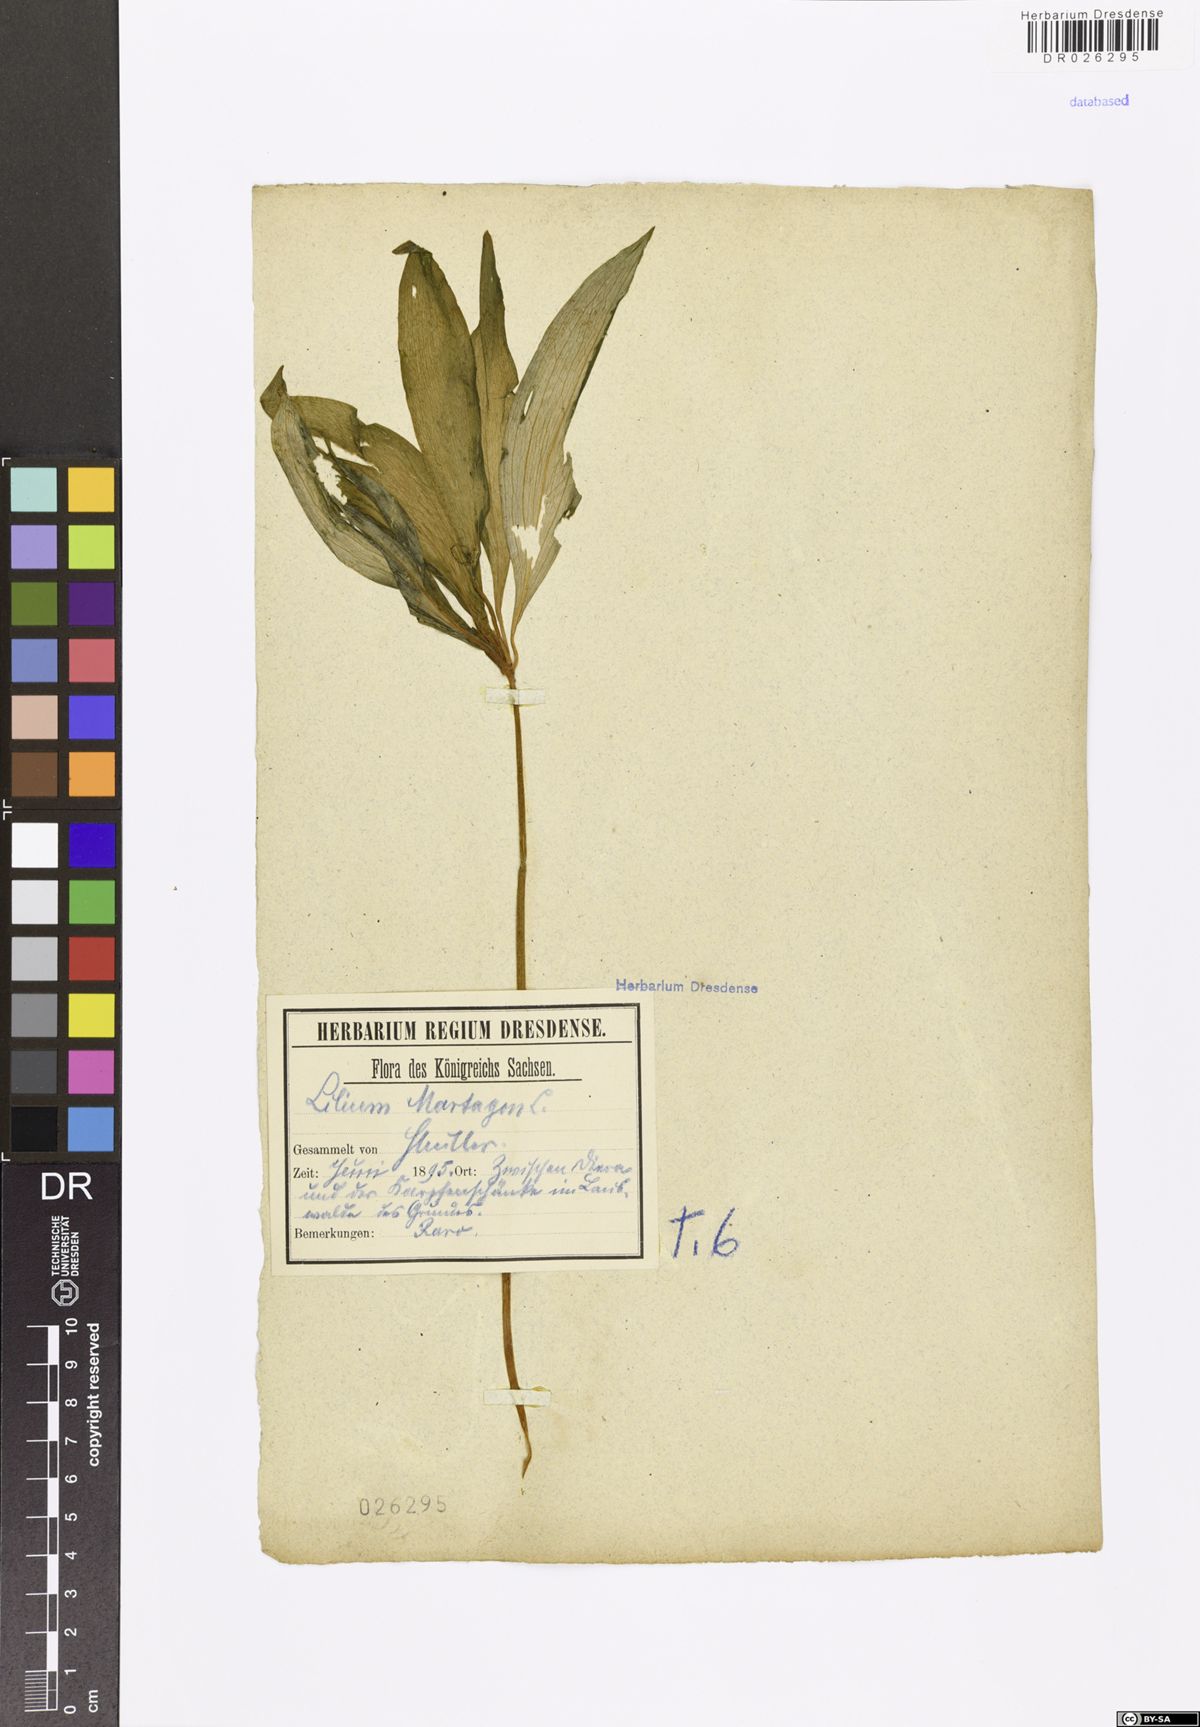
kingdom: Plantae
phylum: Tracheophyta
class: Liliopsida
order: Liliales
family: Liliaceae
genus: Lilium
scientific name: Lilium martagon
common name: Martagon lily
